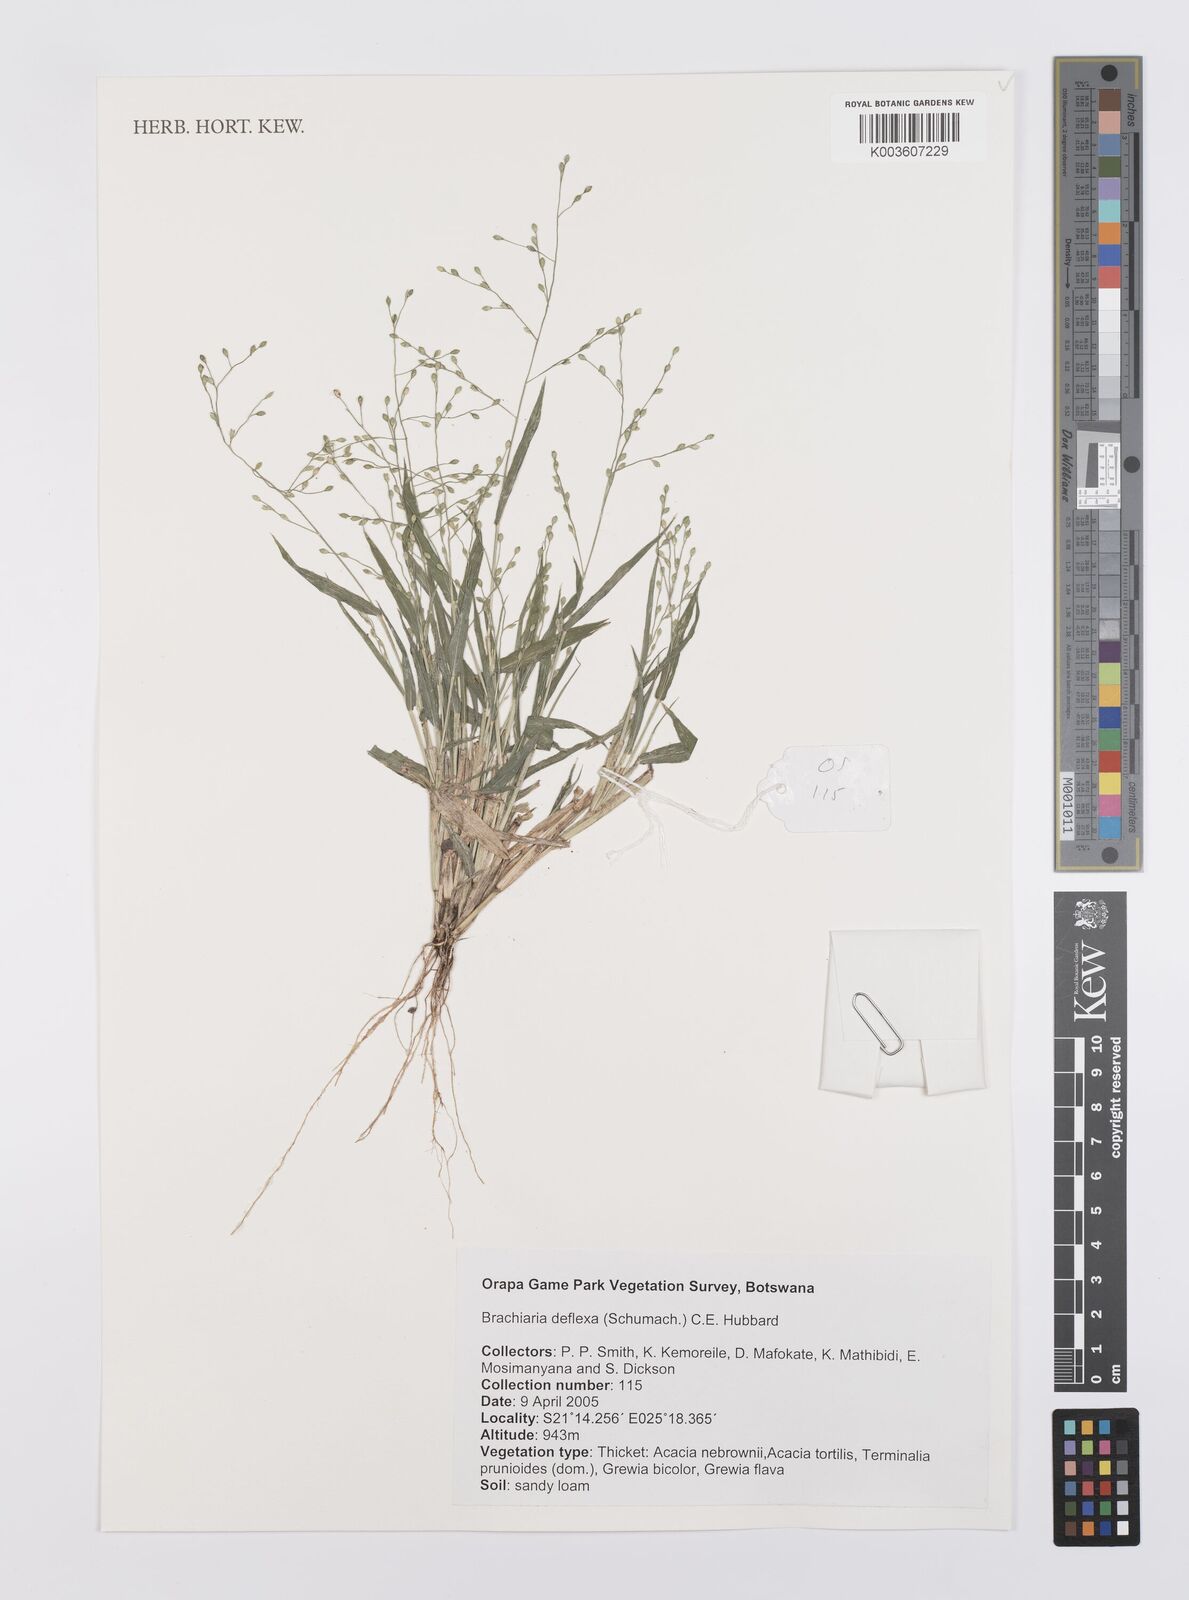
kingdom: Plantae
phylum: Tracheophyta
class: Liliopsida
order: Poales
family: Poaceae
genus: Urochloa
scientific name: Urochloa deflexa
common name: Guinea millet
